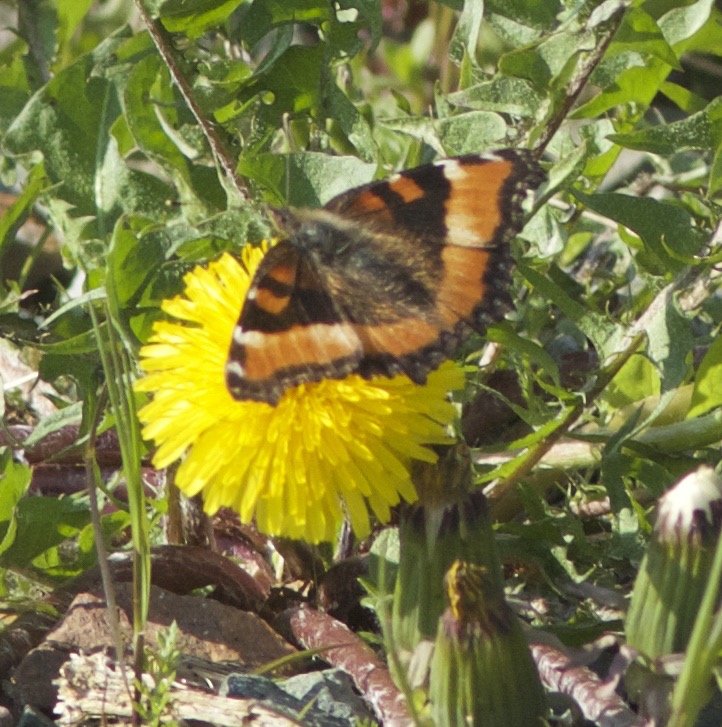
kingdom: Animalia
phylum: Arthropoda
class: Insecta
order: Lepidoptera
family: Nymphalidae
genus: Aglais
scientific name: Aglais milberti
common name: Milbert's Tortoiseshell
